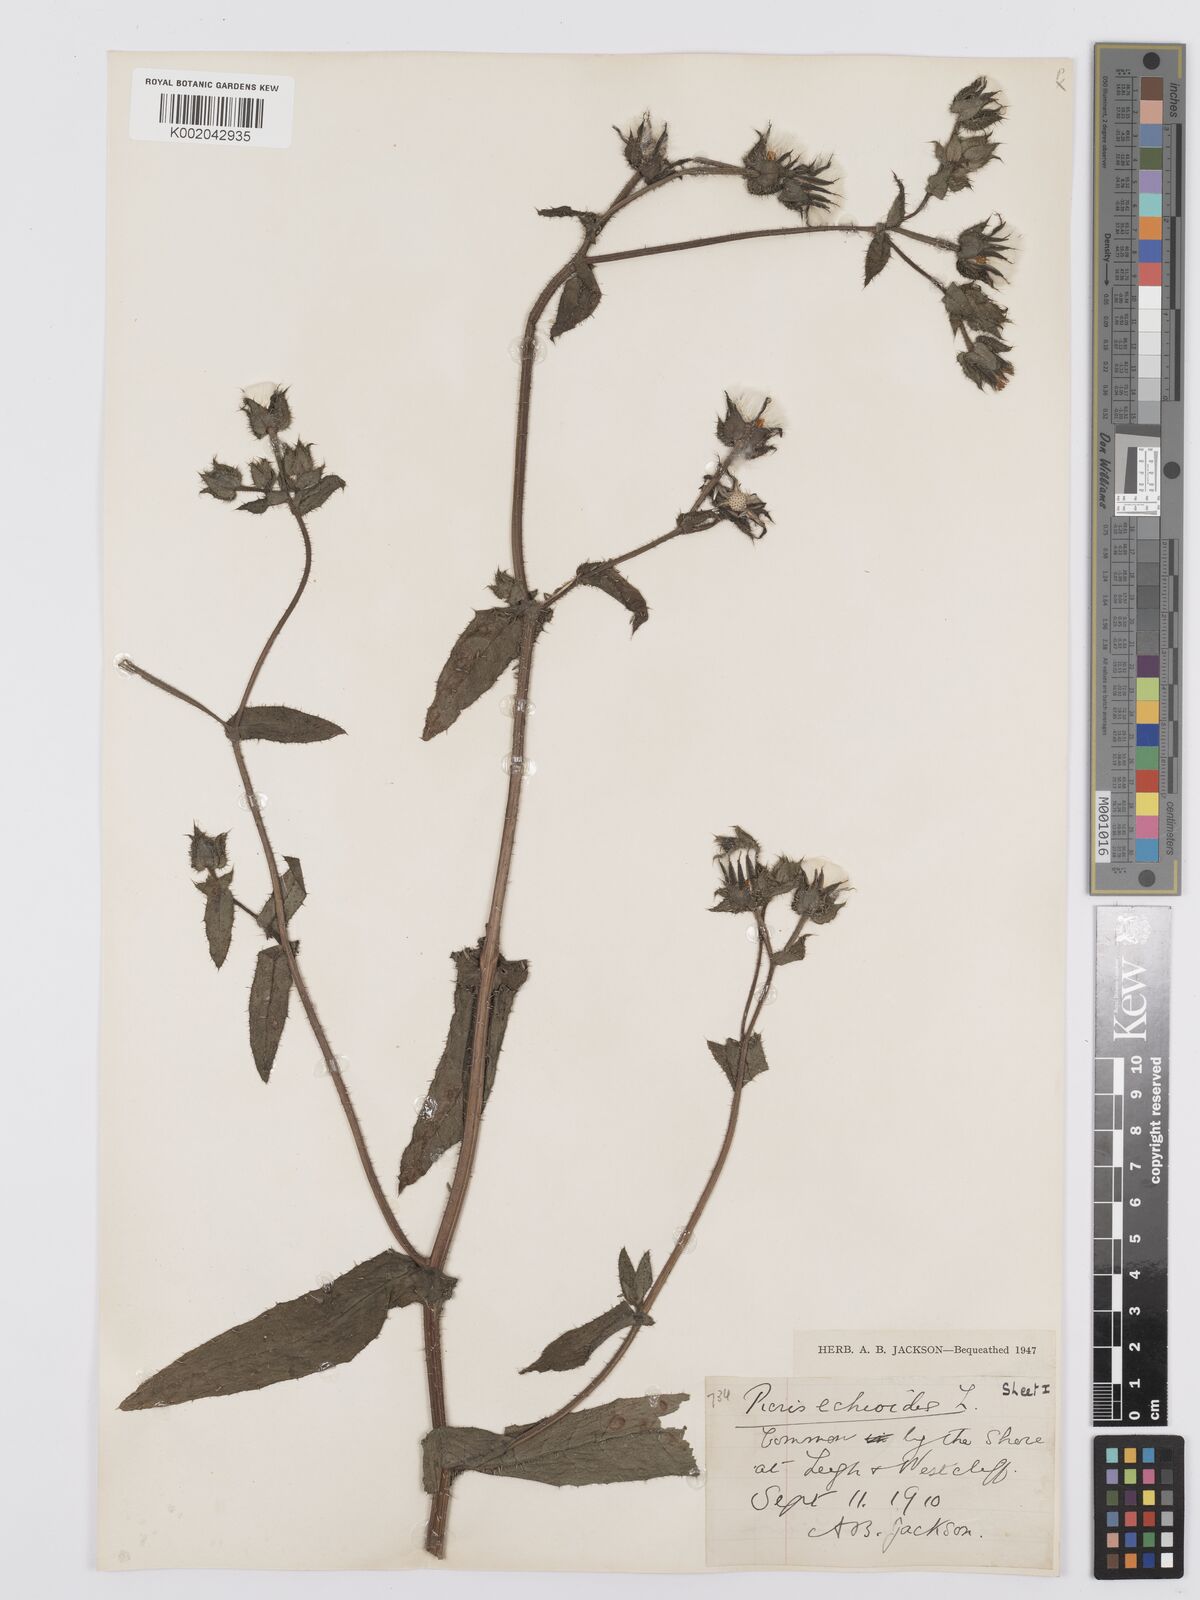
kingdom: Plantae
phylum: Tracheophyta
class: Magnoliopsida
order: Asterales
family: Asteraceae
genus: Helminthotheca
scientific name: Helminthotheca echioides
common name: Ox-tongue
